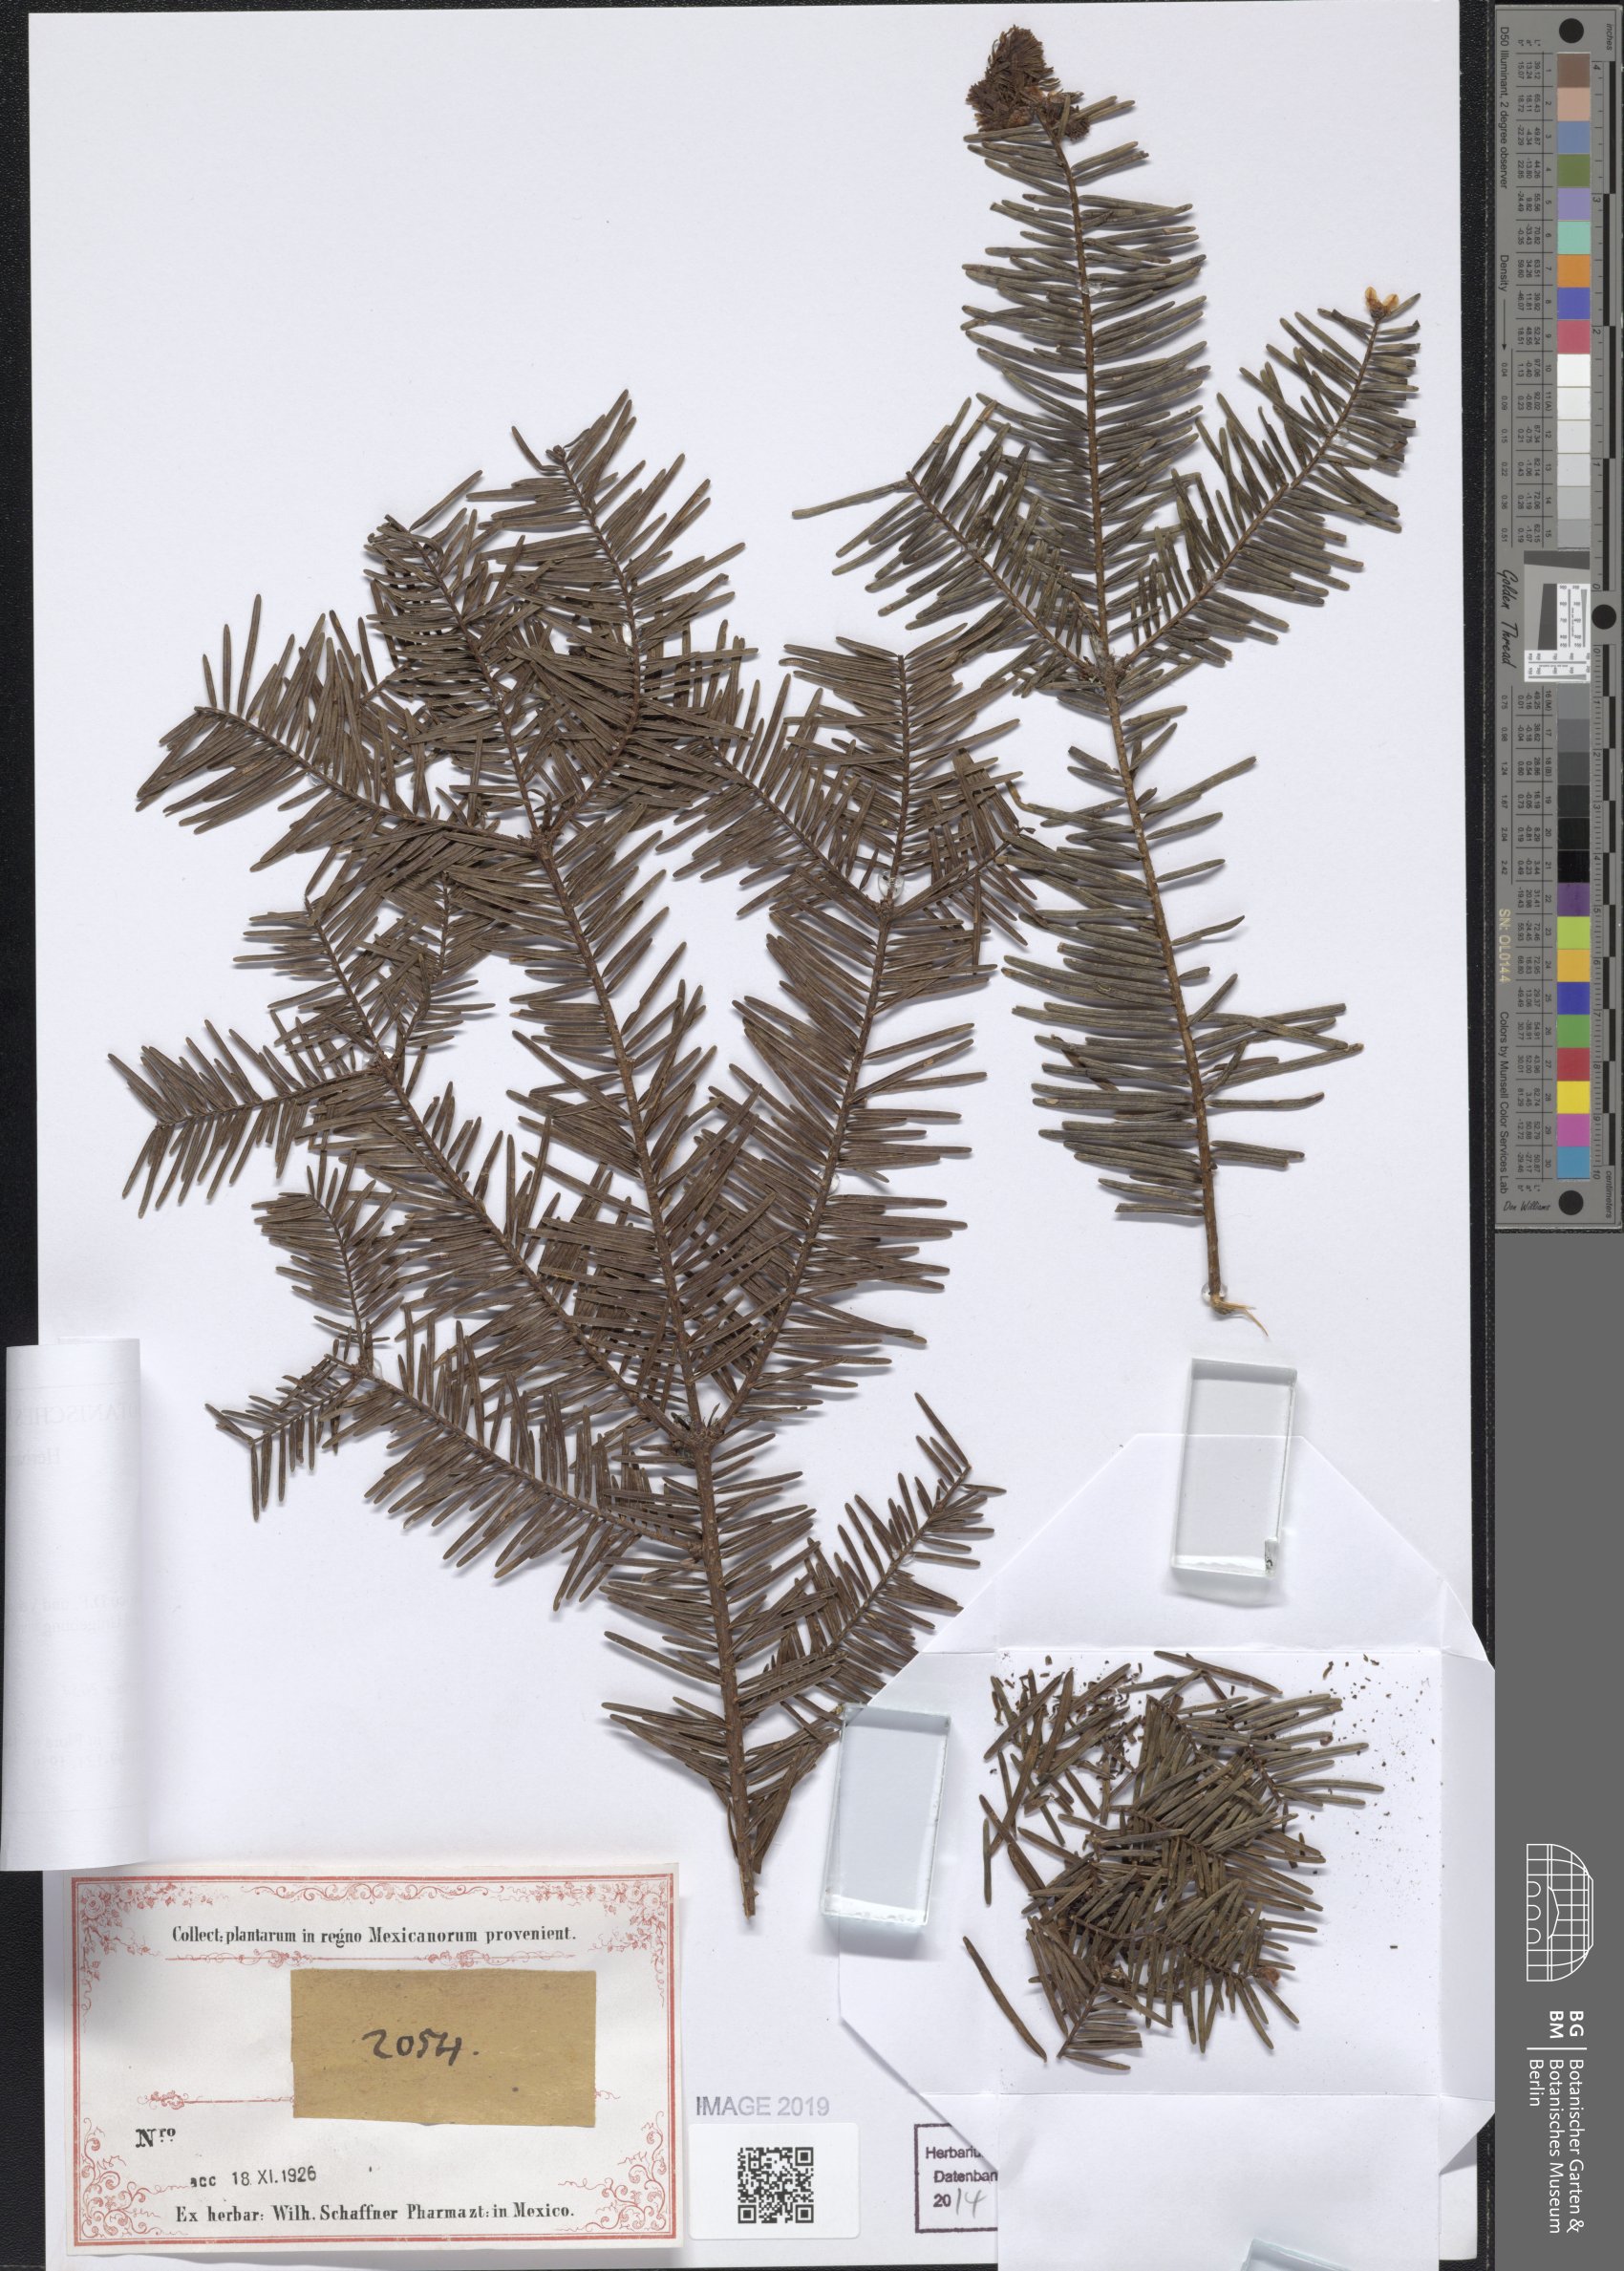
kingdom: Plantae
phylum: Tracheophyta
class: Pinopsida
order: Pinales
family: Pinaceae
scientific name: Pinaceae
